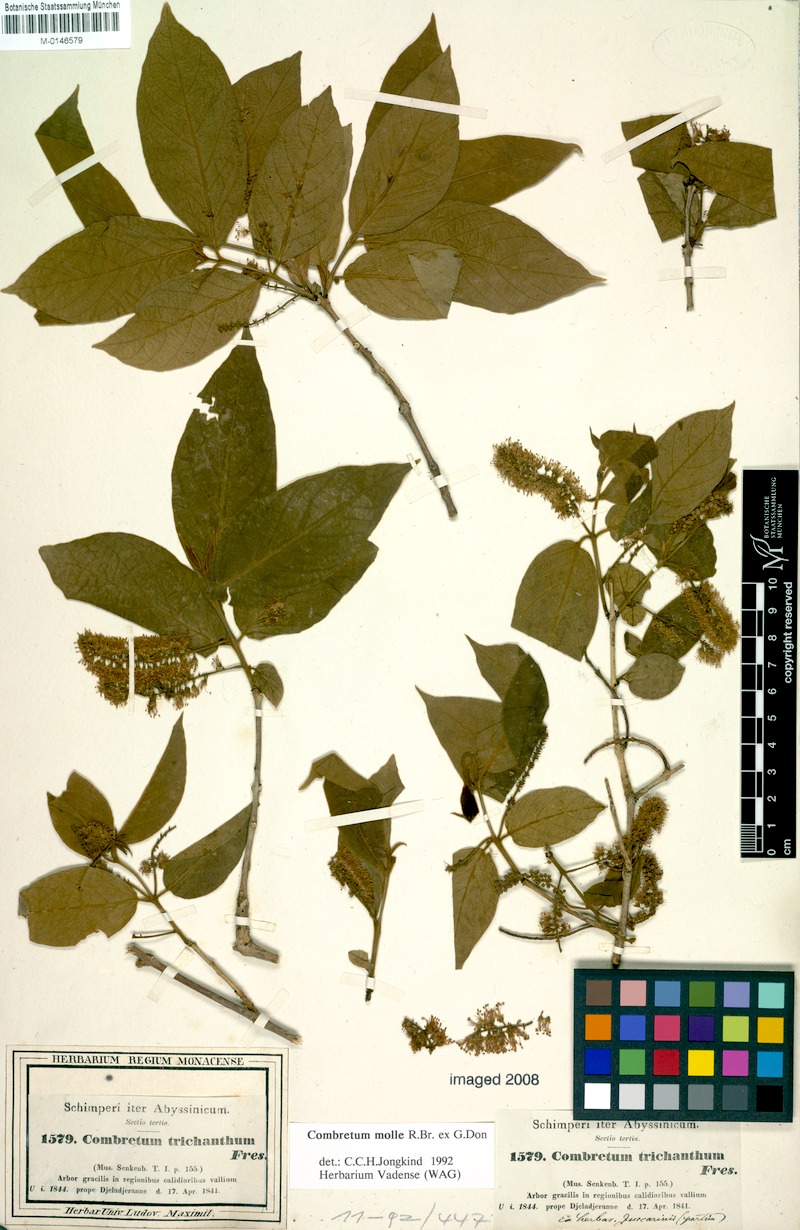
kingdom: Plantae
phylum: Tracheophyta
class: Magnoliopsida
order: Myrtales
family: Combretaceae
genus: Combretum
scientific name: Combretum molle
